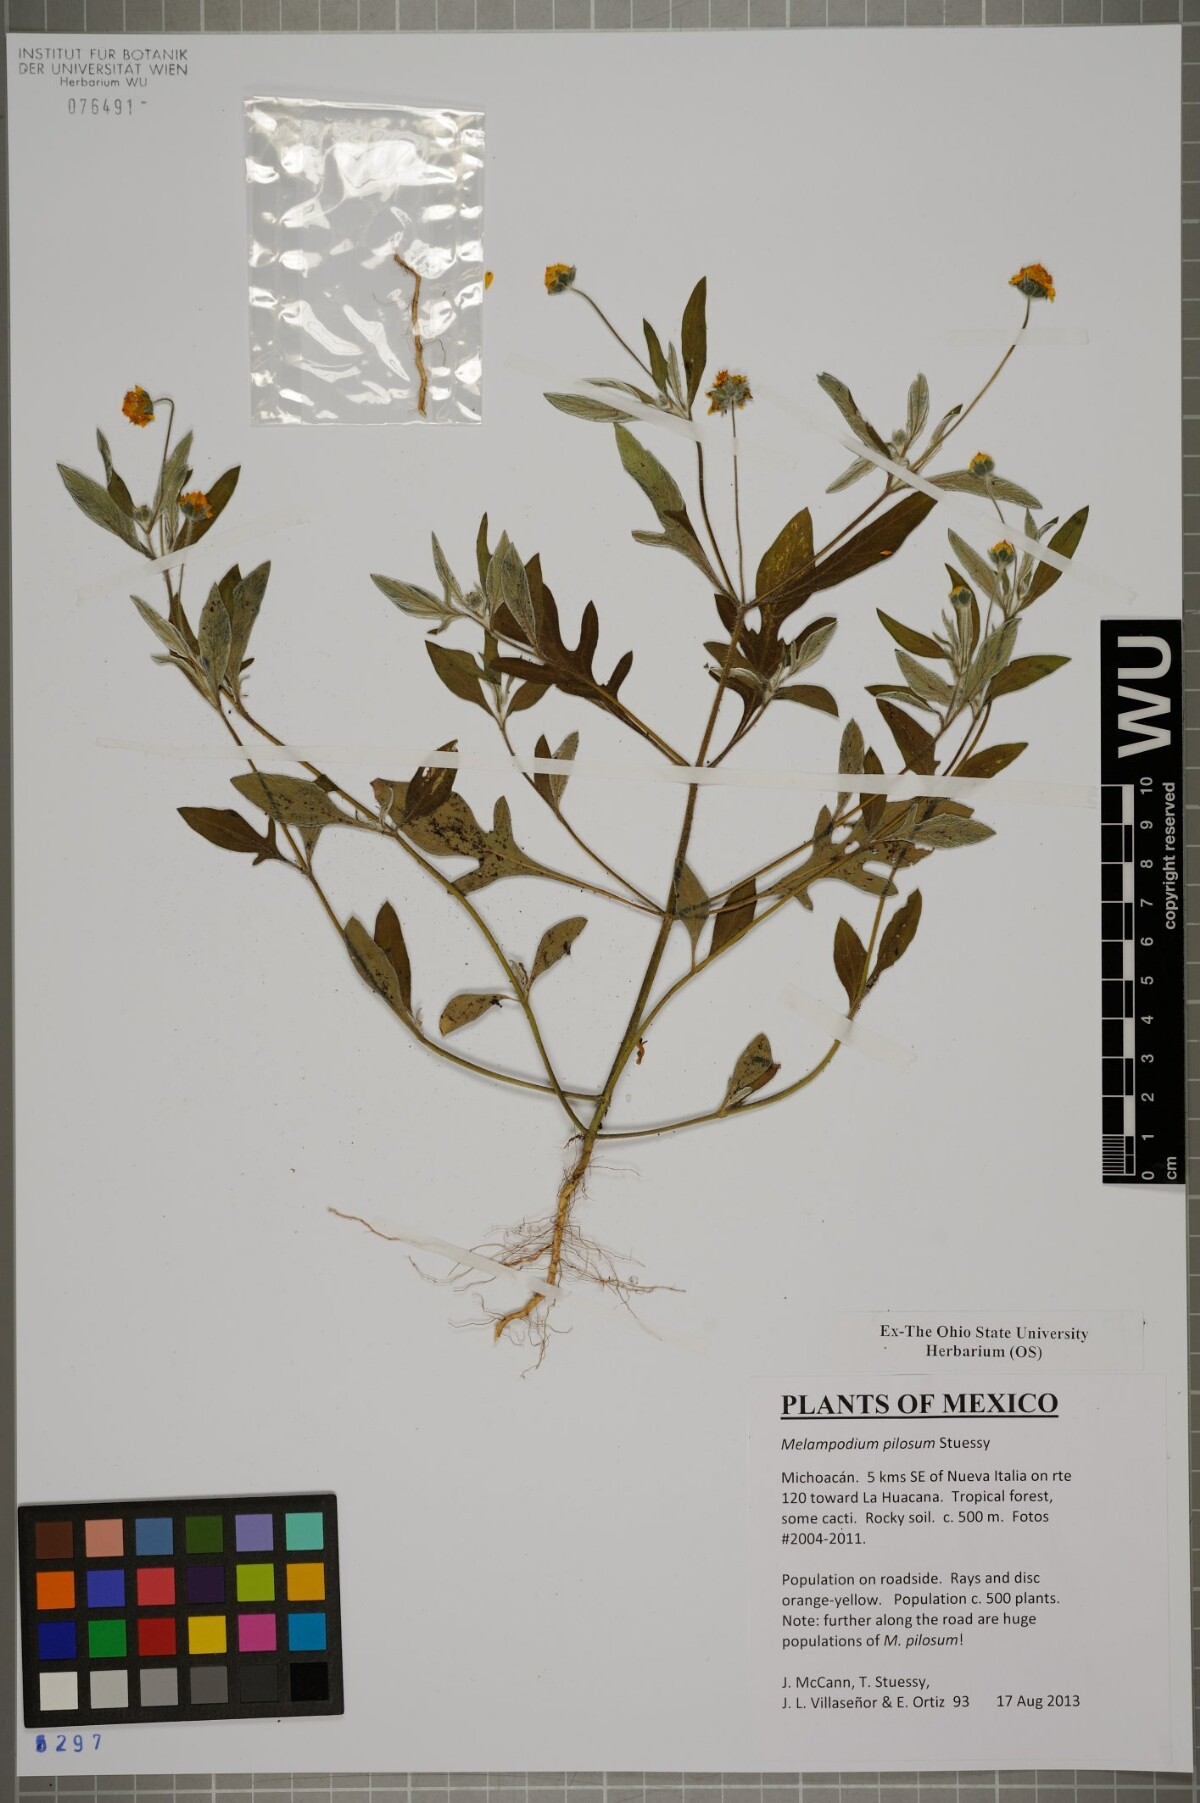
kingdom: Plantae
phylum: Tracheophyta
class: Magnoliopsida
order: Asterales
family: Asteraceae
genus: Melampodium
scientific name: Melampodium pilosum
